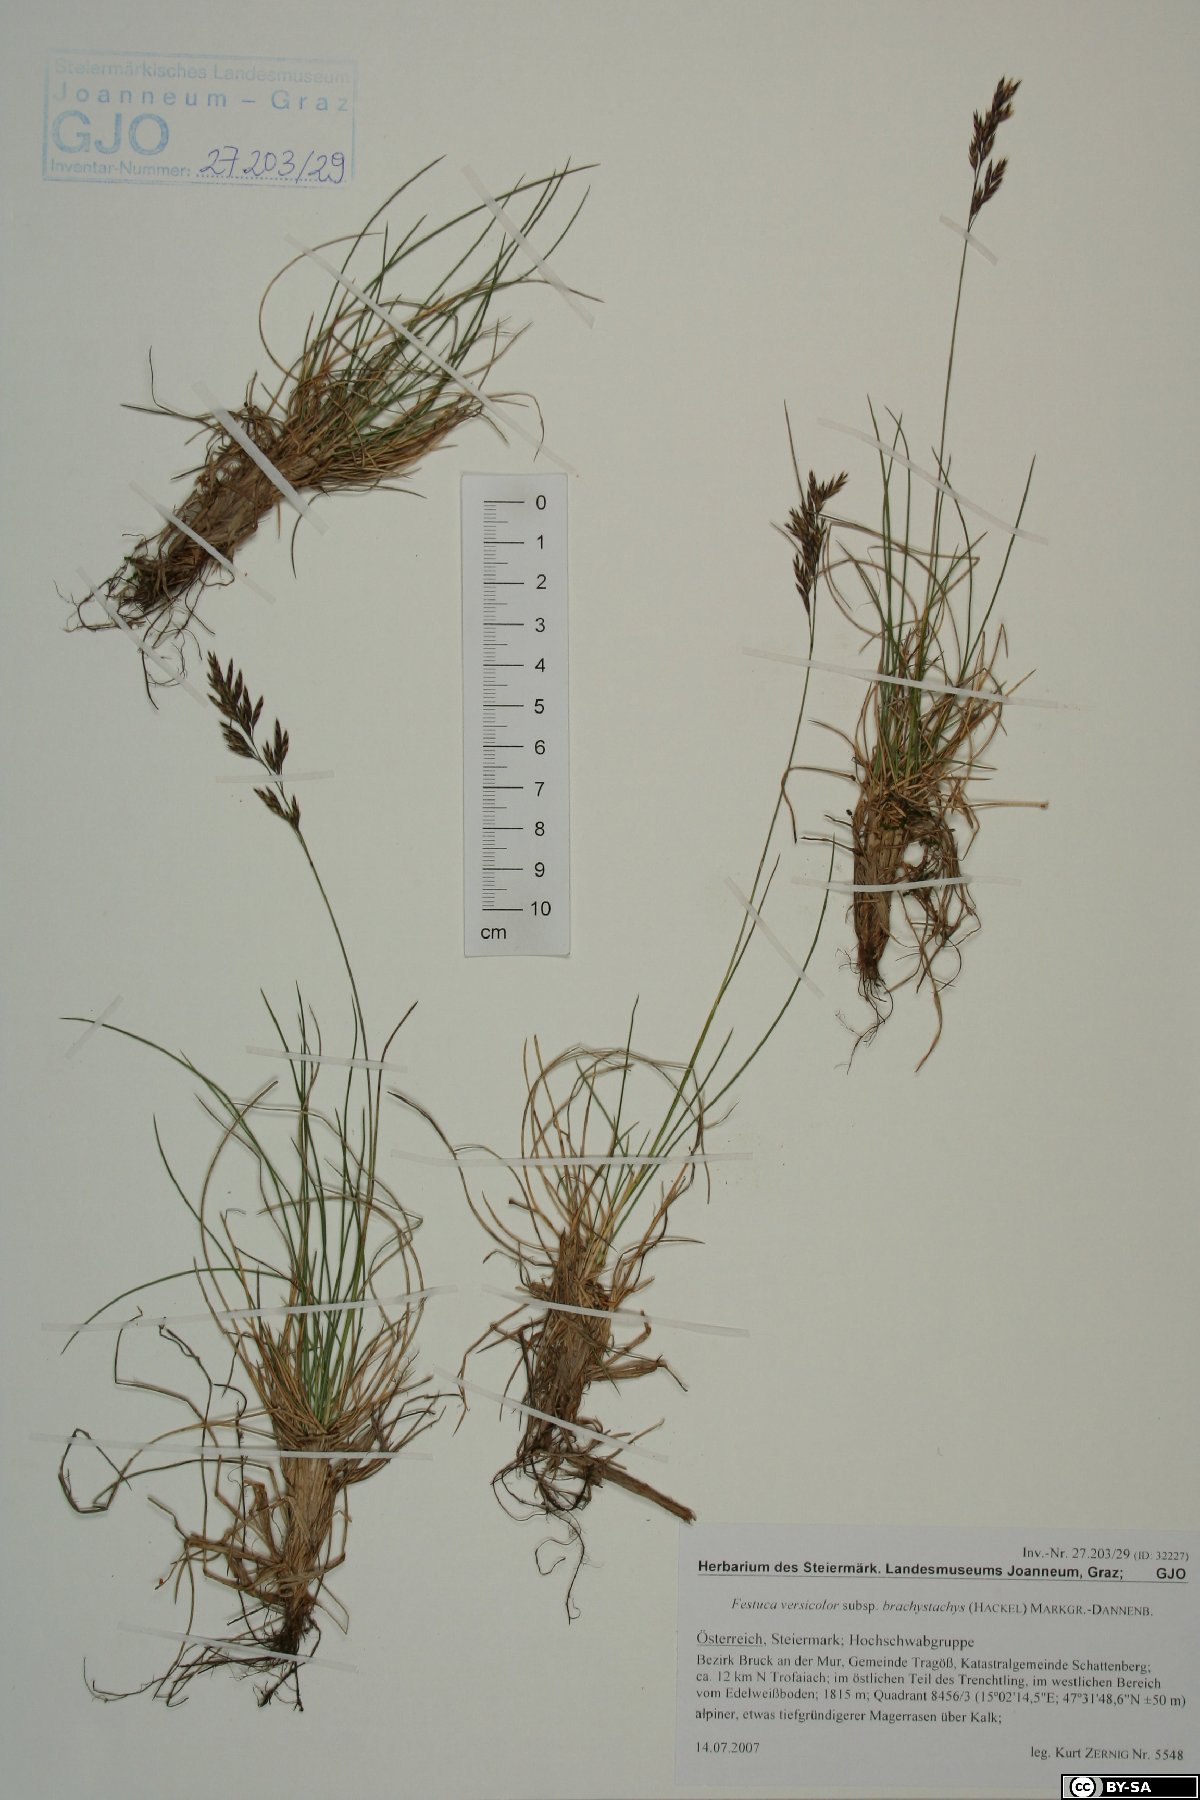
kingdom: Plantae
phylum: Tracheophyta
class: Liliopsida
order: Poales
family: Poaceae
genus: Festuca
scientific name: Festuca varia
